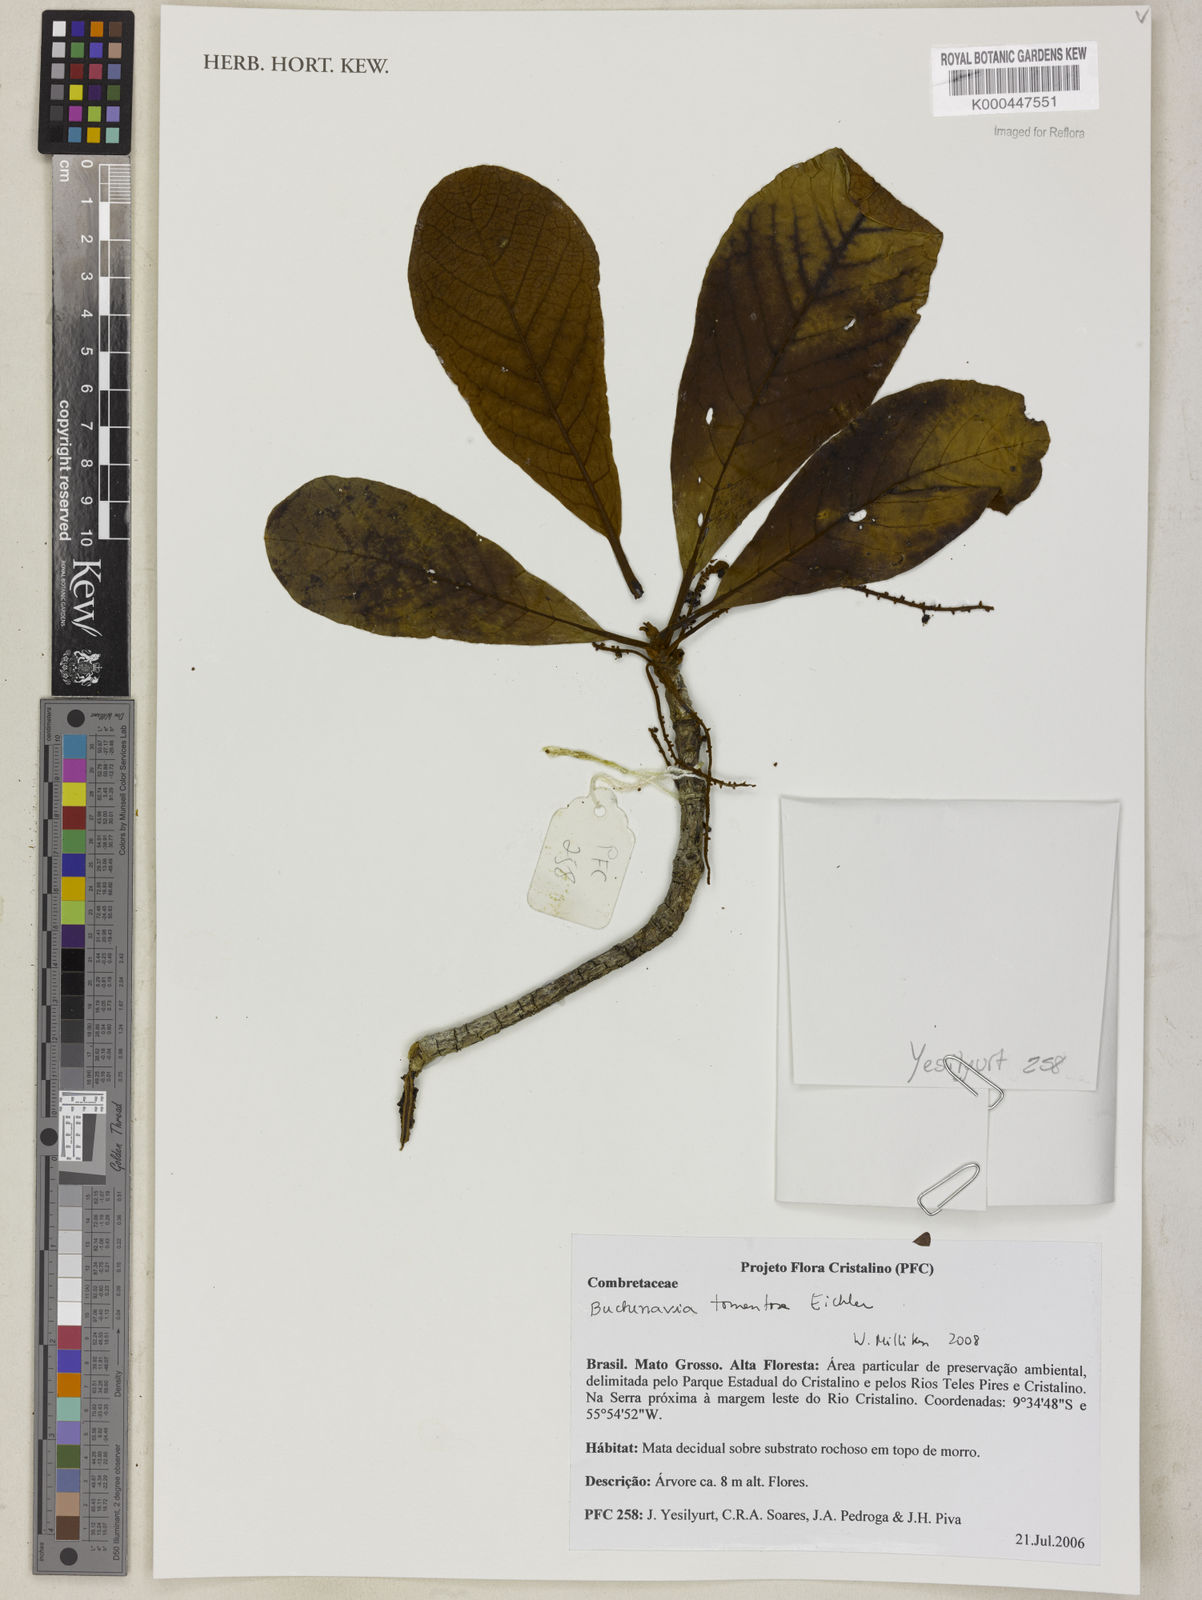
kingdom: Plantae
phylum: Tracheophyta
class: Magnoliopsida
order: Myrtales
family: Combretaceae
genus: Terminalia
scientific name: Terminalia corrugata
